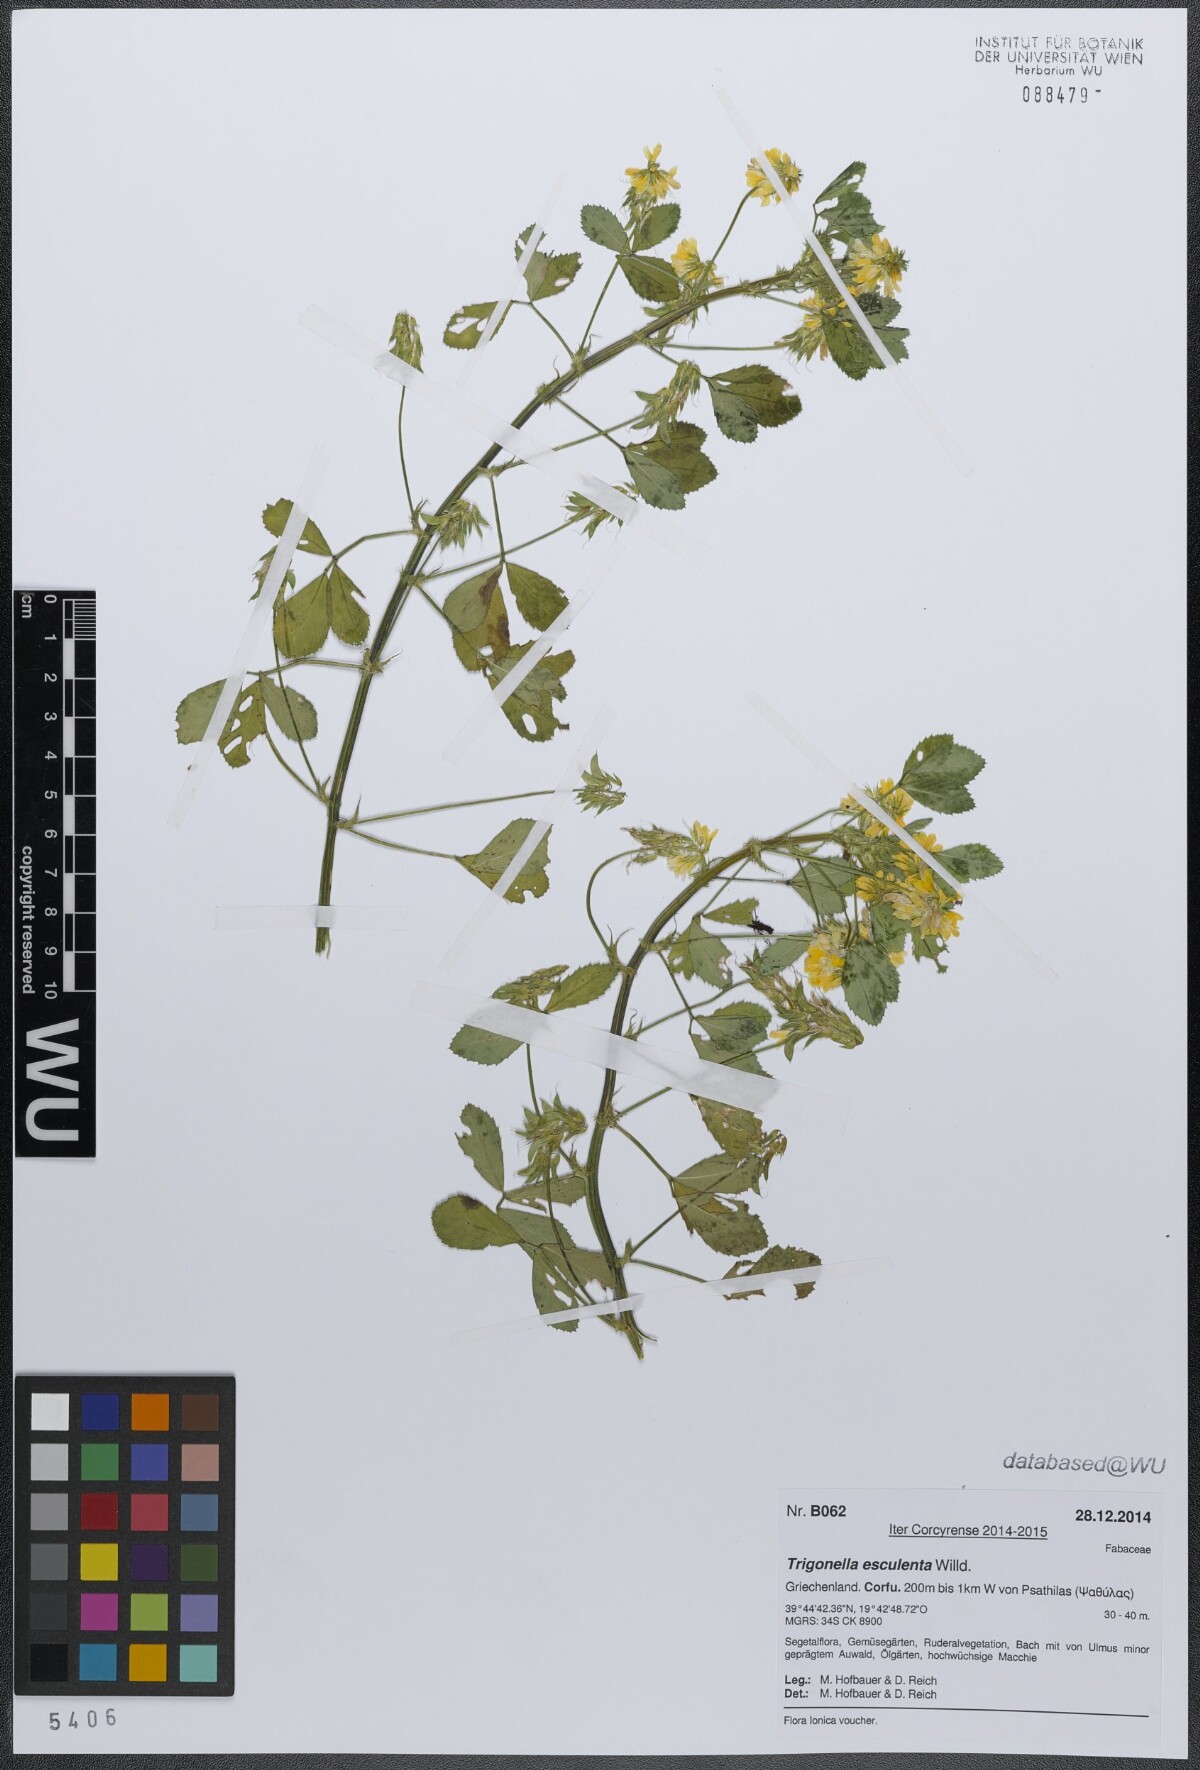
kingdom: Plantae
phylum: Tracheophyta
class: Magnoliopsida
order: Fabales
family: Fabaceae
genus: Trigonella
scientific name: Trigonella balansae
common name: Sickle-fruited fenugreek
